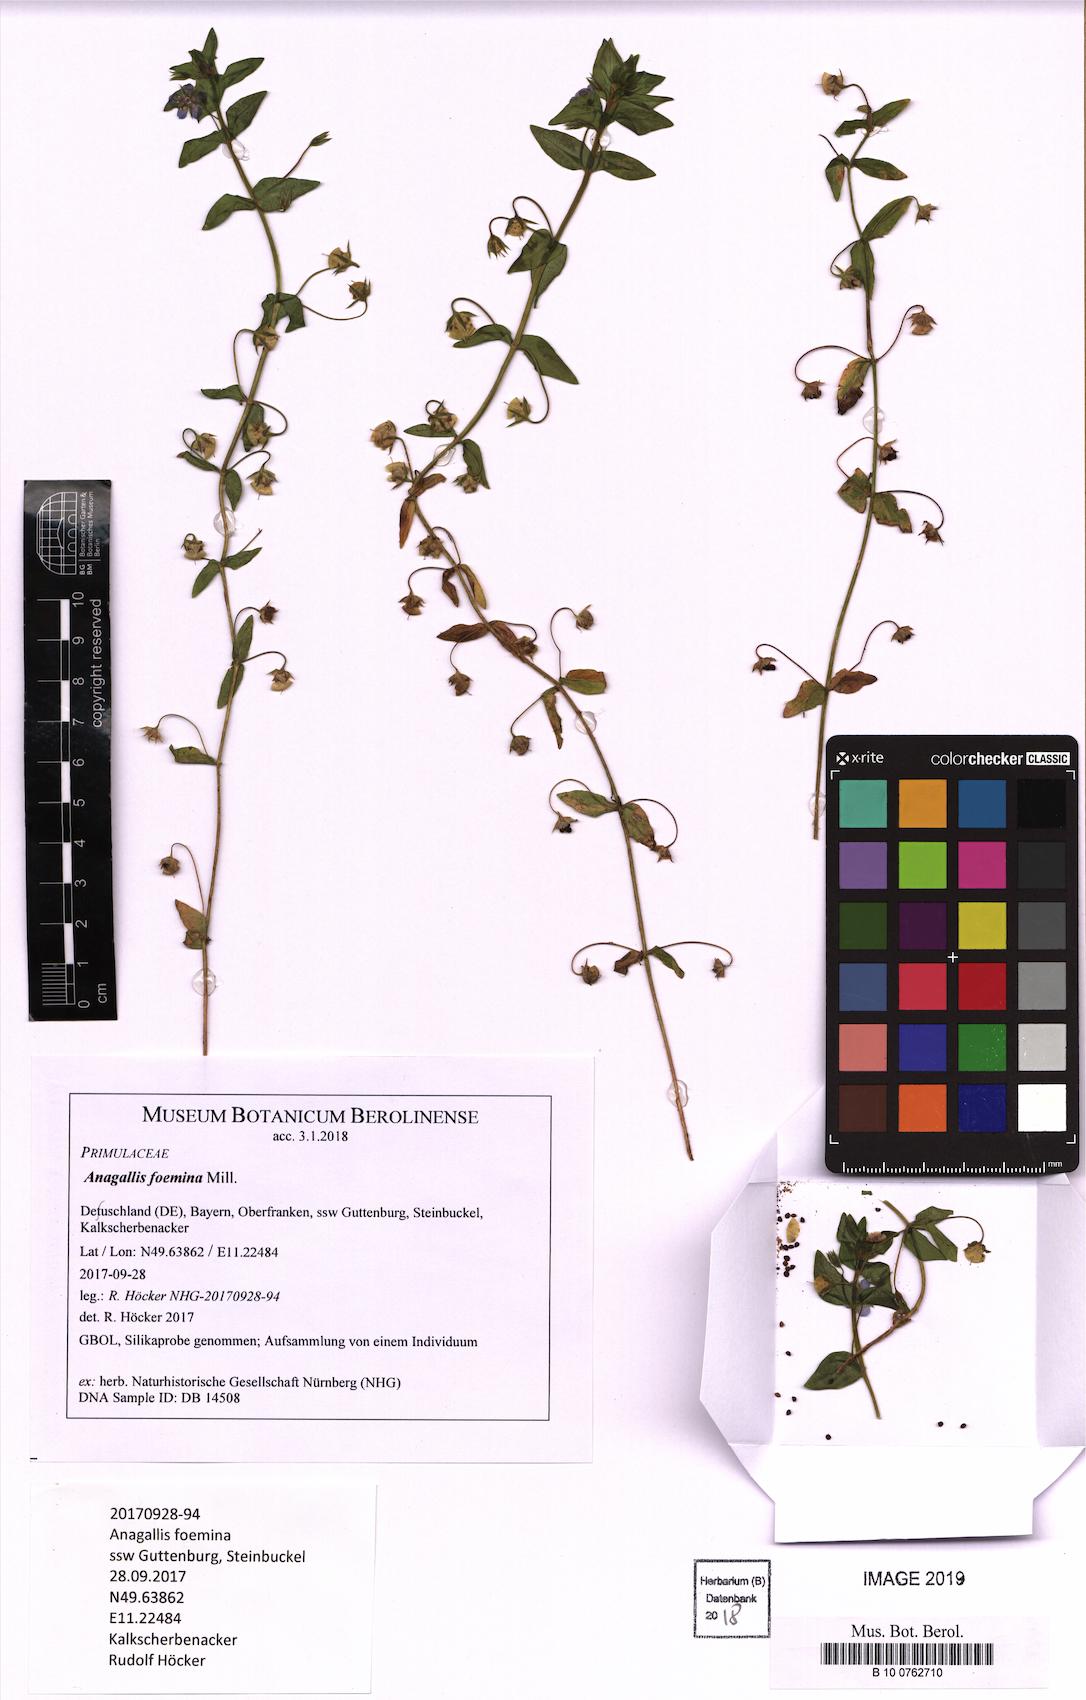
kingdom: Plantae
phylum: Tracheophyta
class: Magnoliopsida
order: Ericales
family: Primulaceae
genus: Lysimachia
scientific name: Lysimachia foemina
